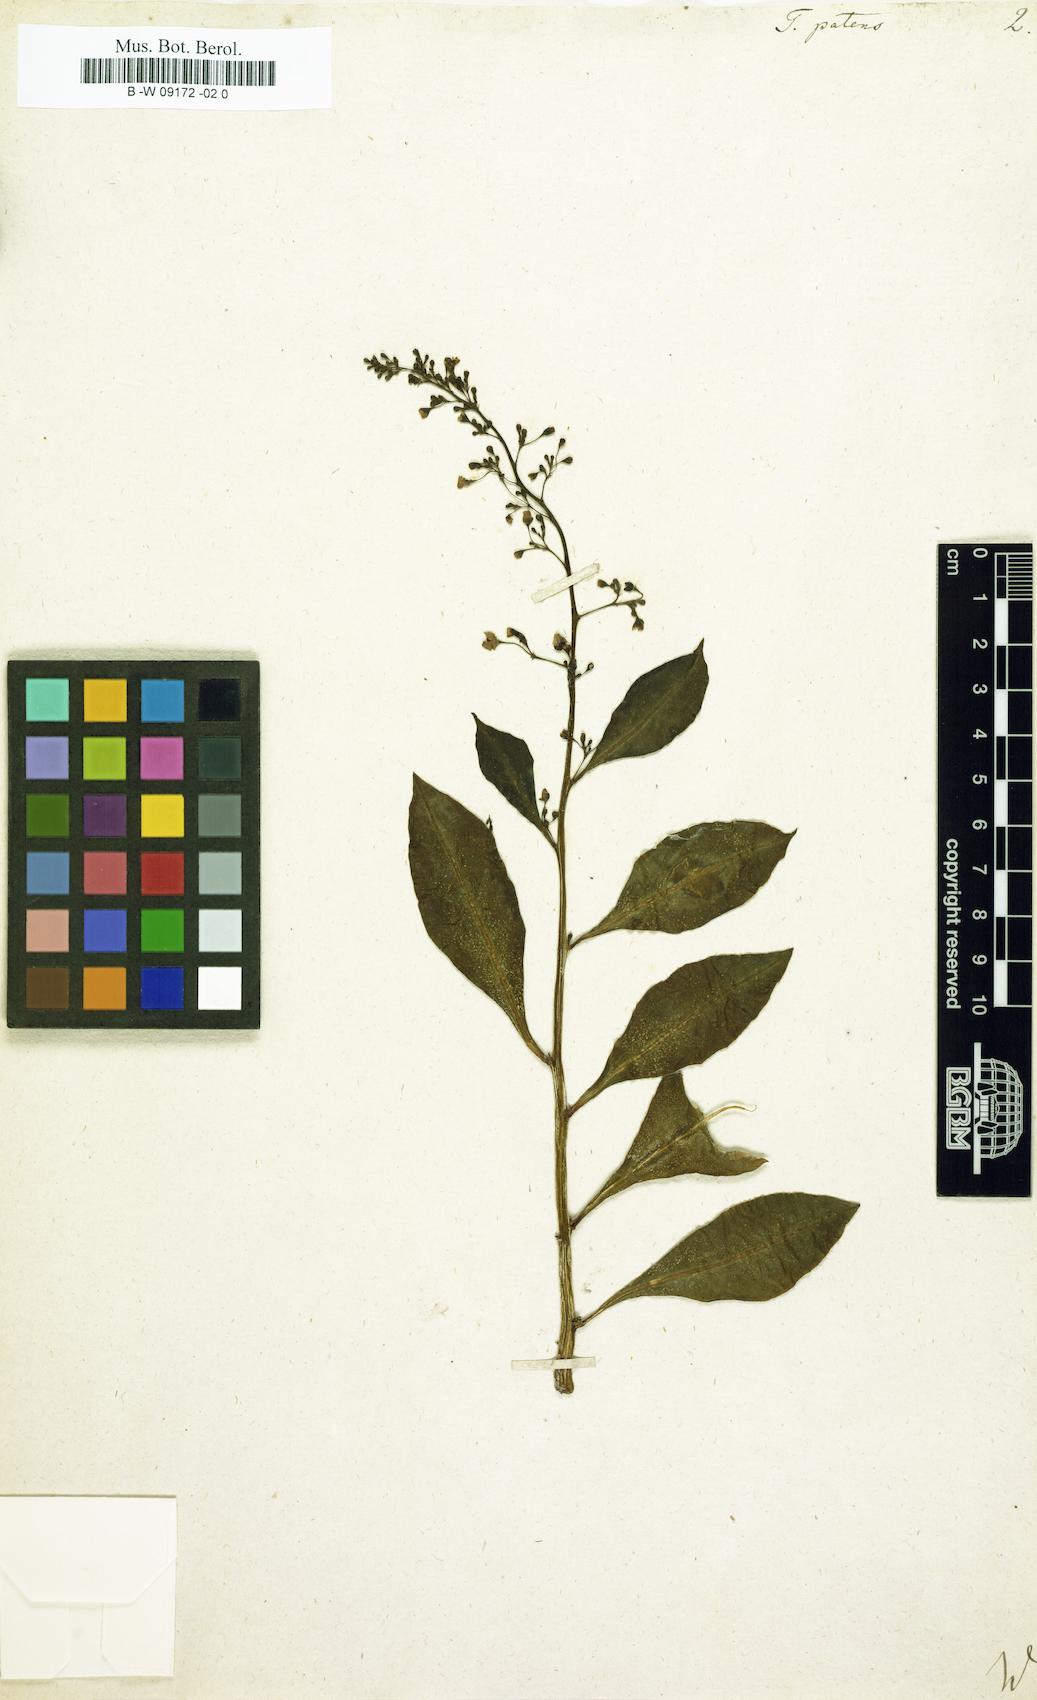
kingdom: Plantae
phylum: Tracheophyta
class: Magnoliopsida
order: Caryophyllales
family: Talinaceae
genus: Talinum
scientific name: Talinum paniculatum
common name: Jewels of opar
